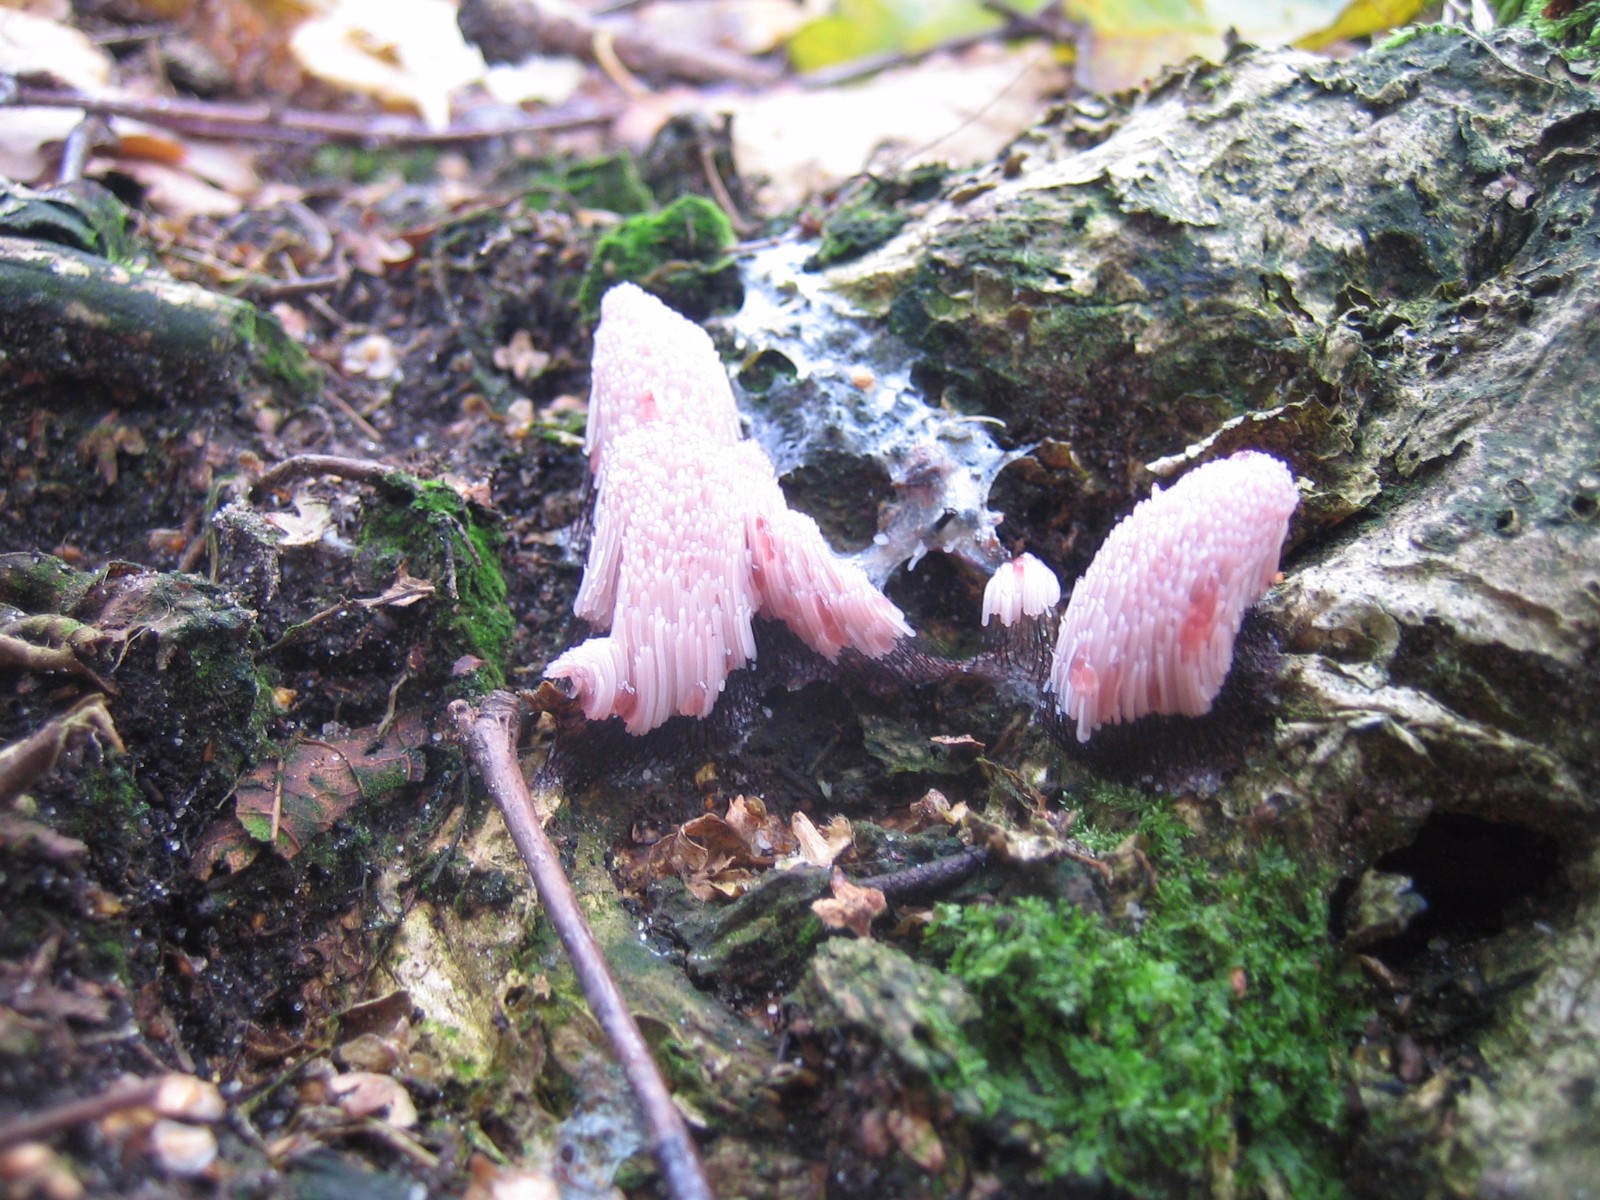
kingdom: Protozoa
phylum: Mycetozoa
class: Myxomycetes
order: Stemonitidales
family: Stemonitidaceae
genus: Stemonitis
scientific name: Stemonitis
